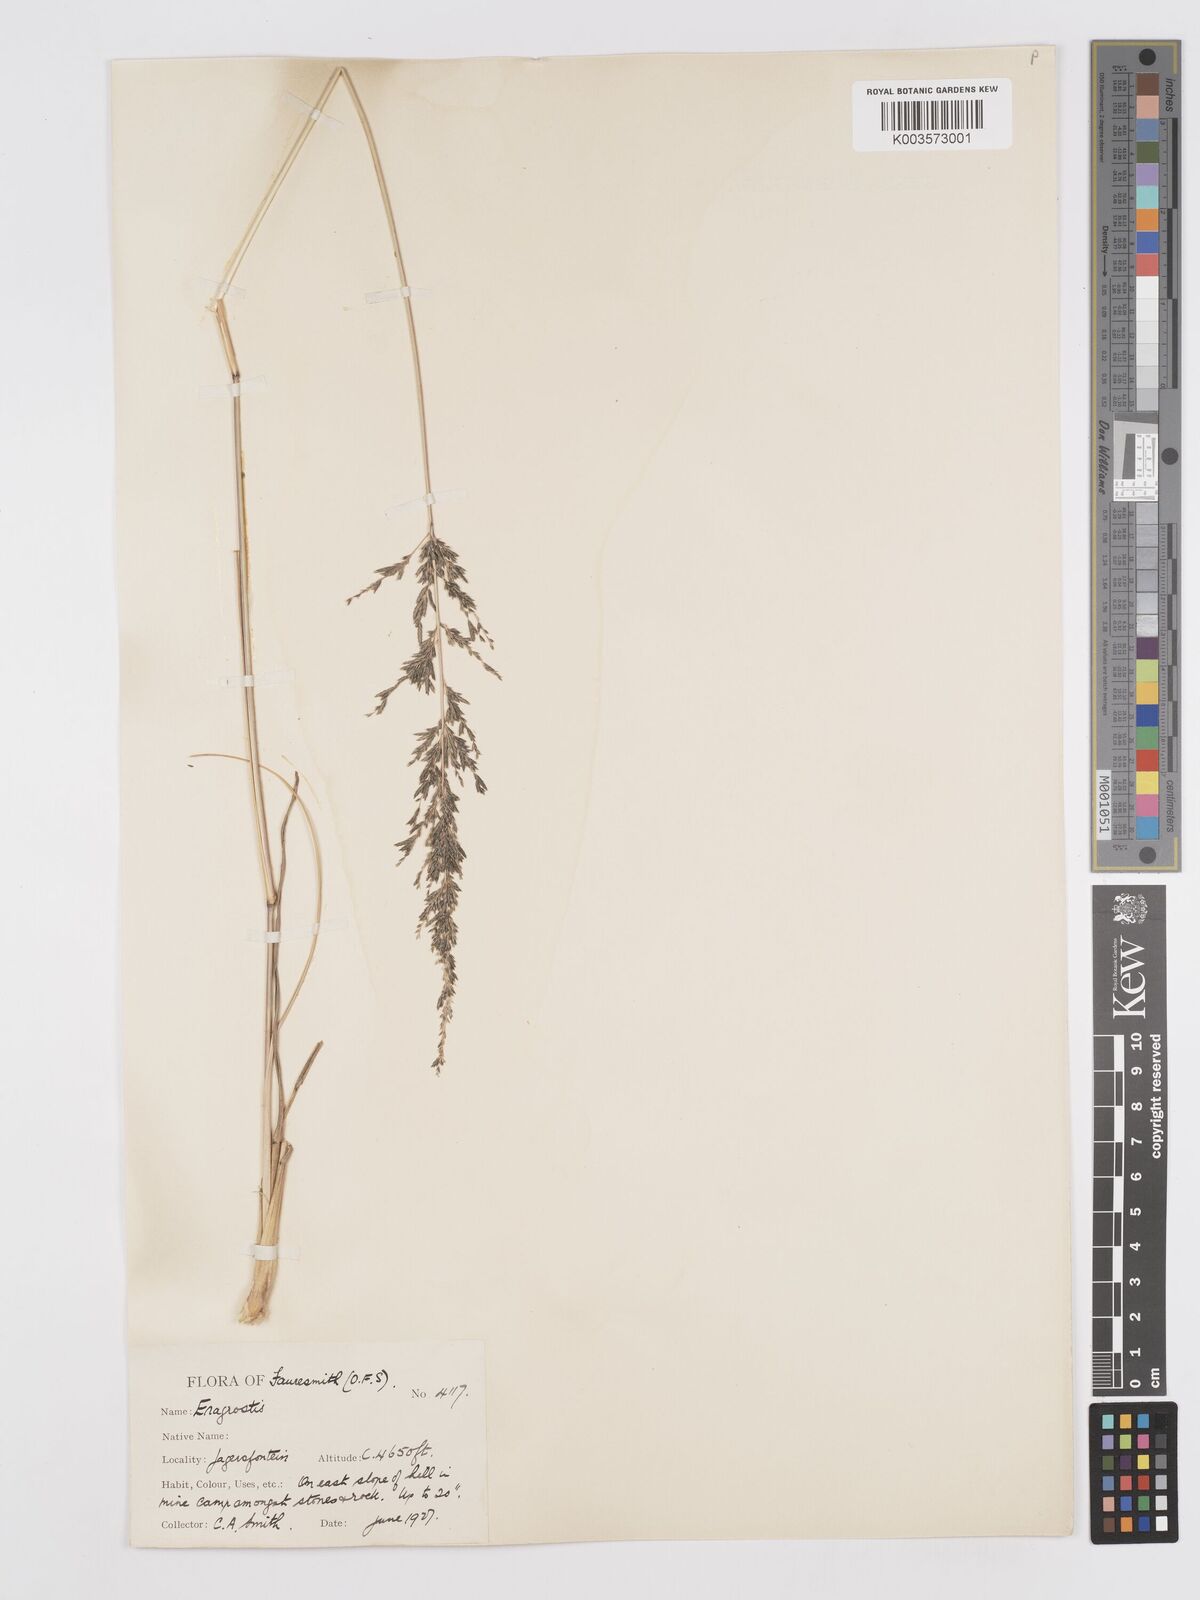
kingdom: Plantae
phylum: Tracheophyta
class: Liliopsida
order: Poales
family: Poaceae
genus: Eragrostis
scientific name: Eragrostis curvula
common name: African love-grass
